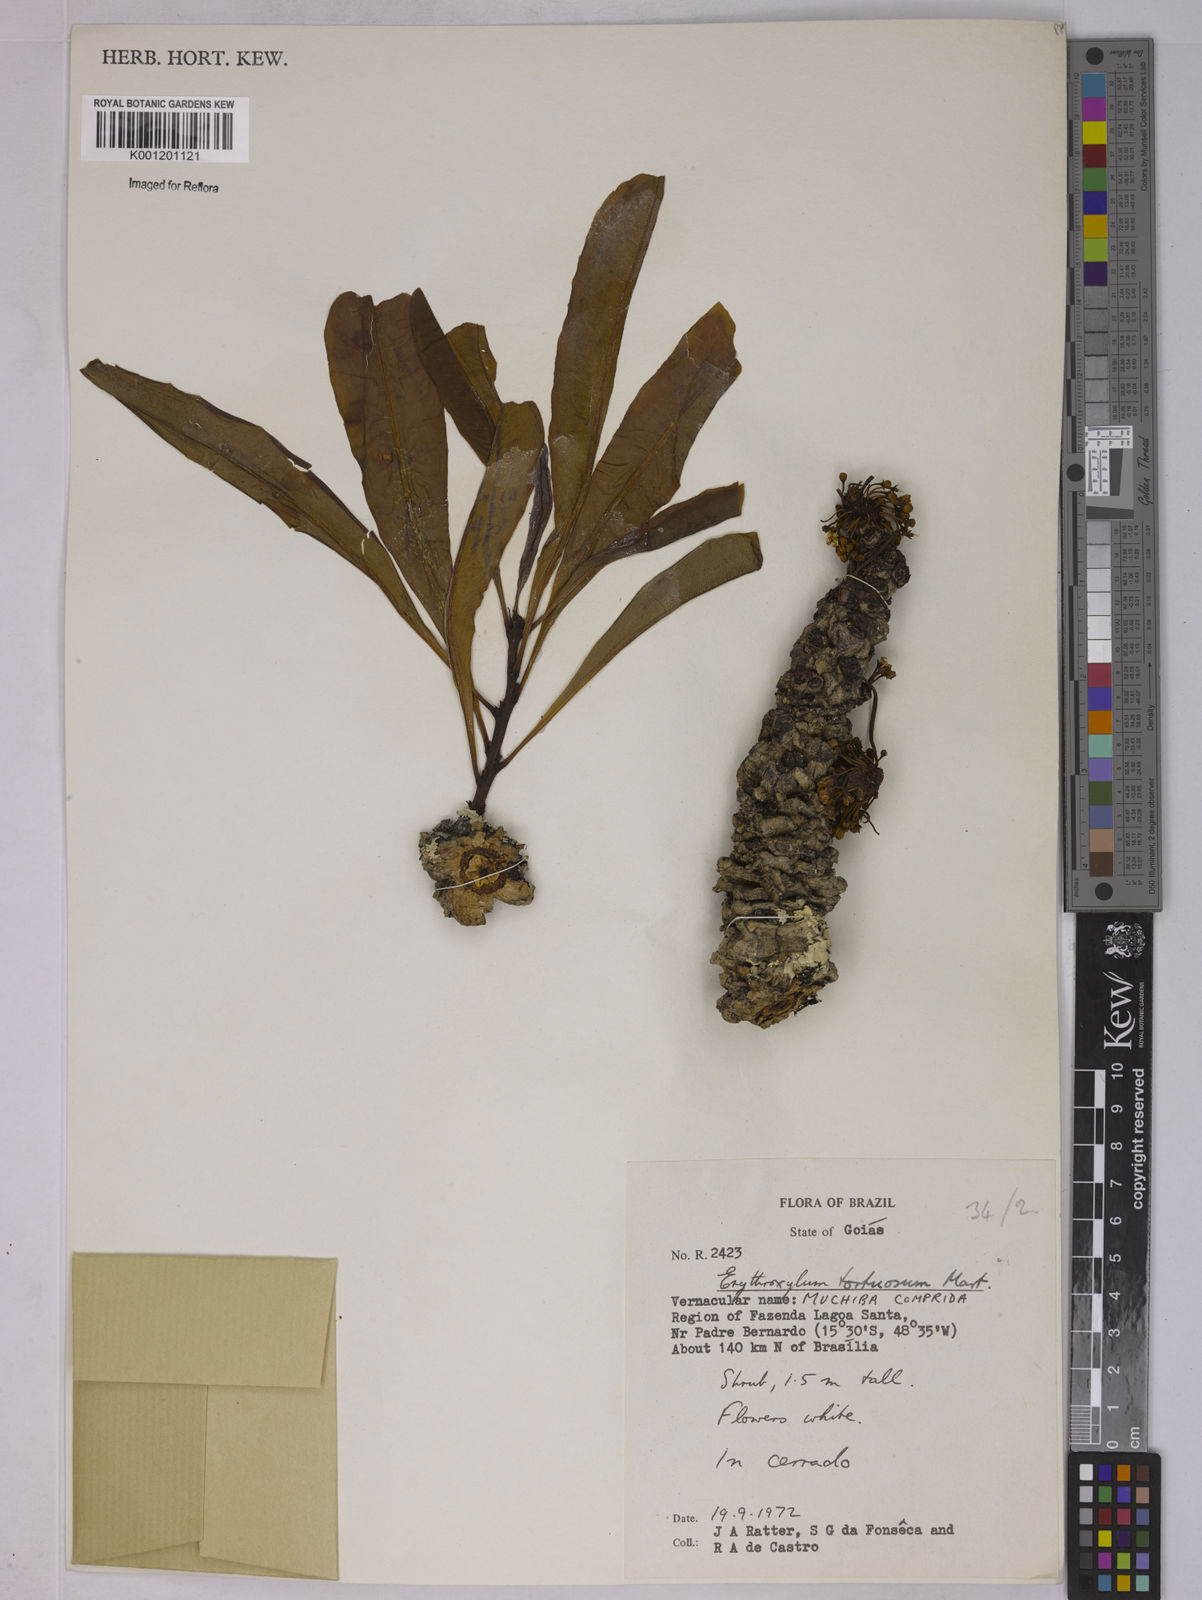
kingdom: Plantae
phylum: Tracheophyta
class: Magnoliopsida
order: Malpighiales
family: Erythroxylaceae
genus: Erythroxylum
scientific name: Erythroxylum tortuosum
